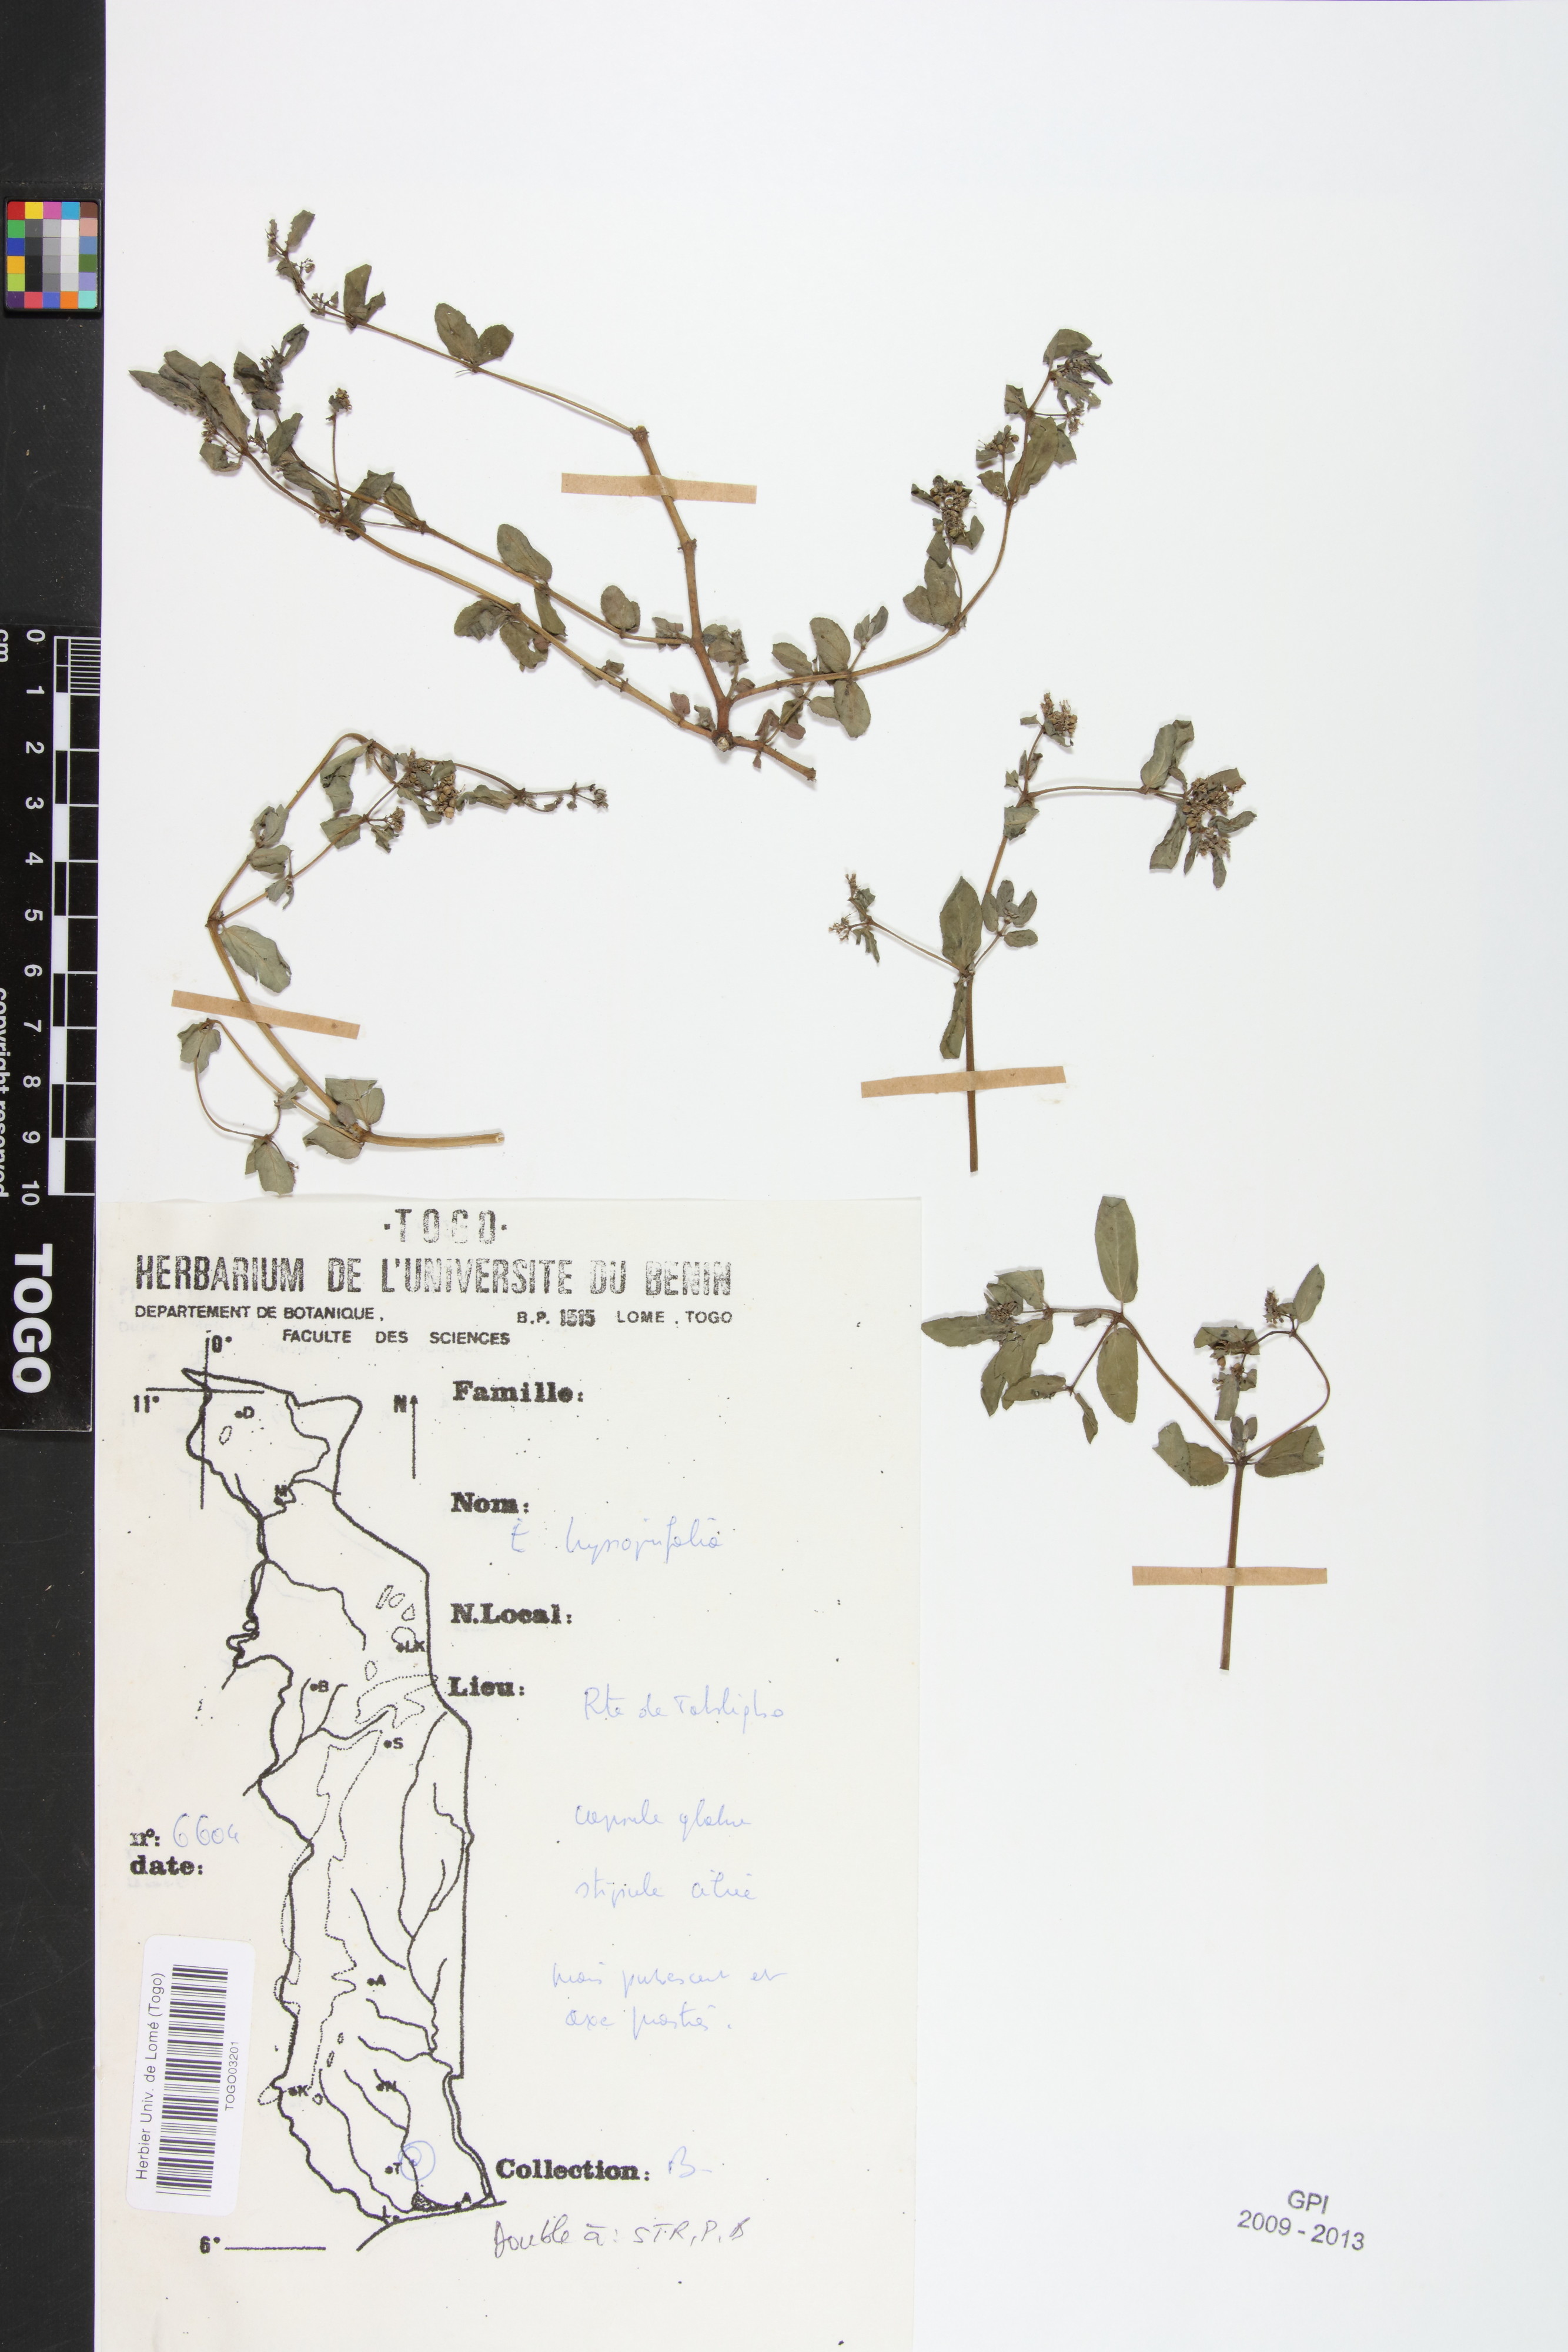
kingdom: Plantae
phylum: Tracheophyta
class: Magnoliopsida
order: Malpighiales
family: Euphorbiaceae
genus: Euphorbia
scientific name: Euphorbia hyssopifolia
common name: Hyssopleaf sandmat
